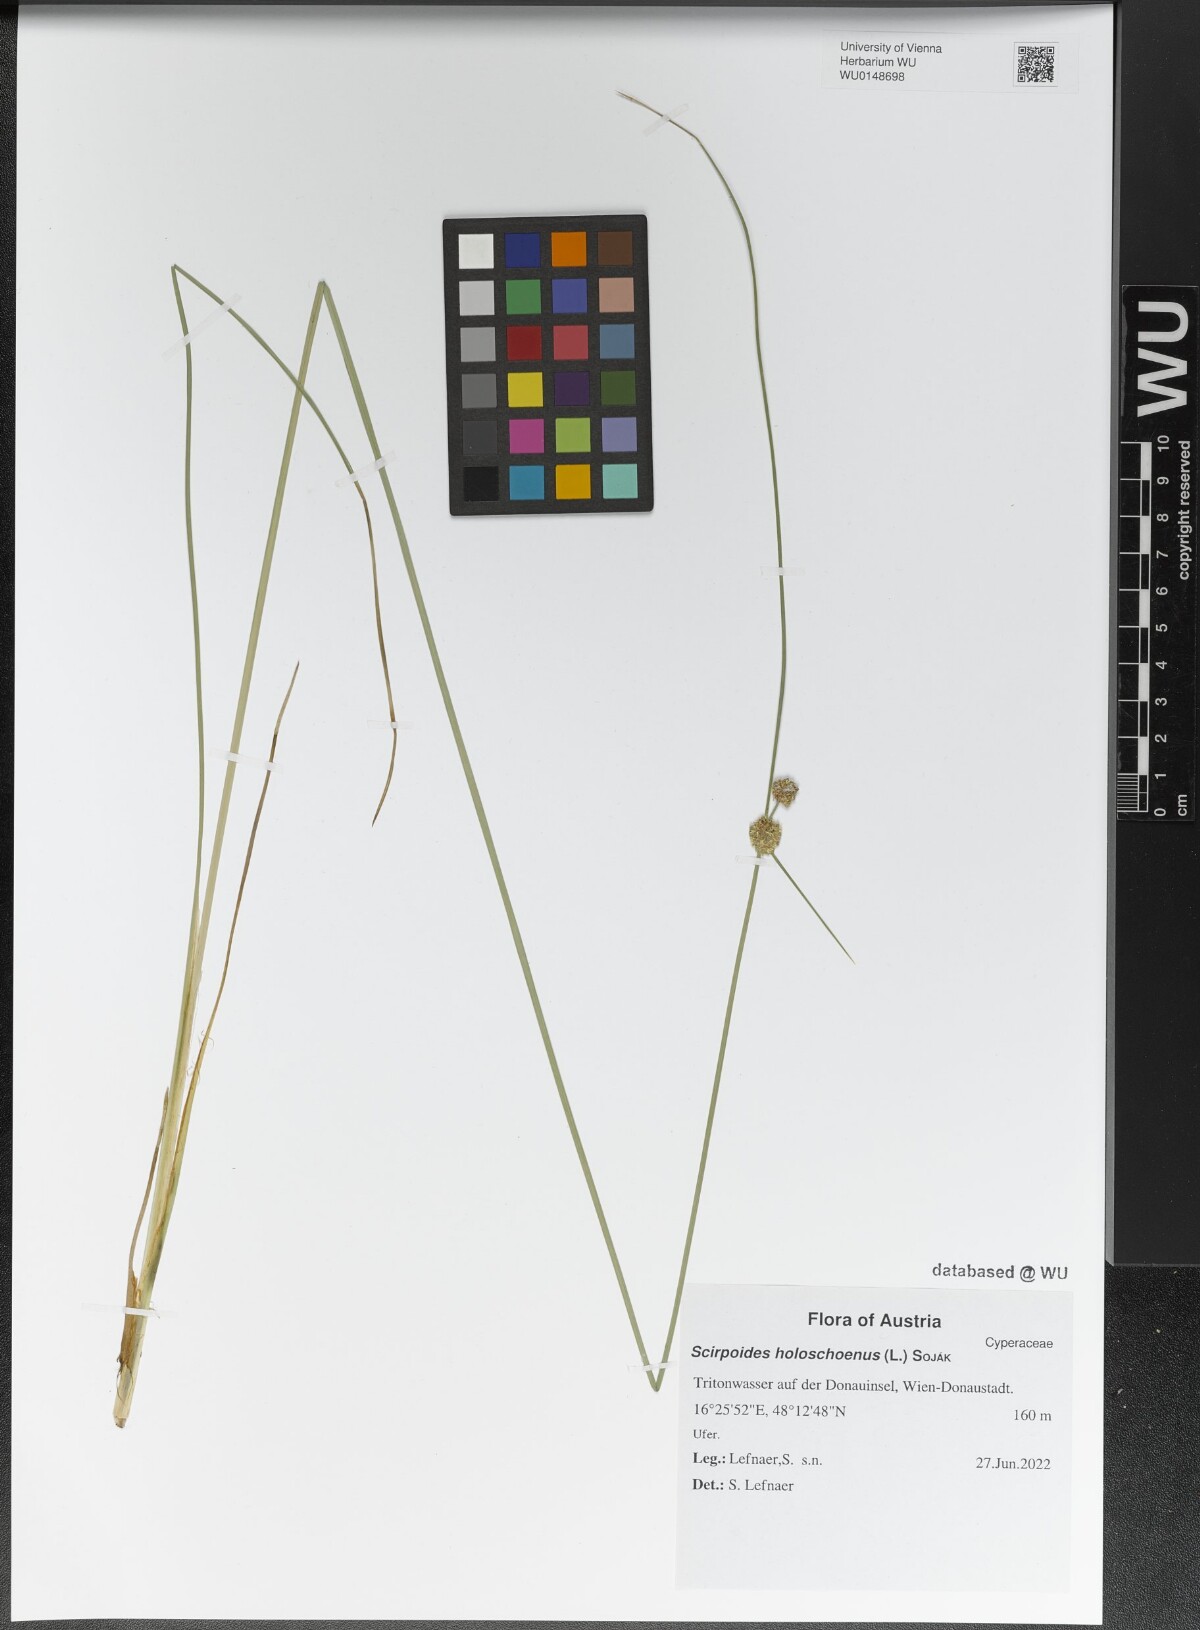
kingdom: Plantae
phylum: Tracheophyta
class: Liliopsida
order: Poales
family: Cyperaceae
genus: Scirpoides
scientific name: Scirpoides holoschoenus
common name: Round-headed club-rush
